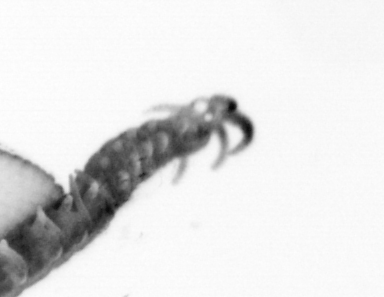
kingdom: Animalia
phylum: Annelida
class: Polychaeta
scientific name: Polychaeta
